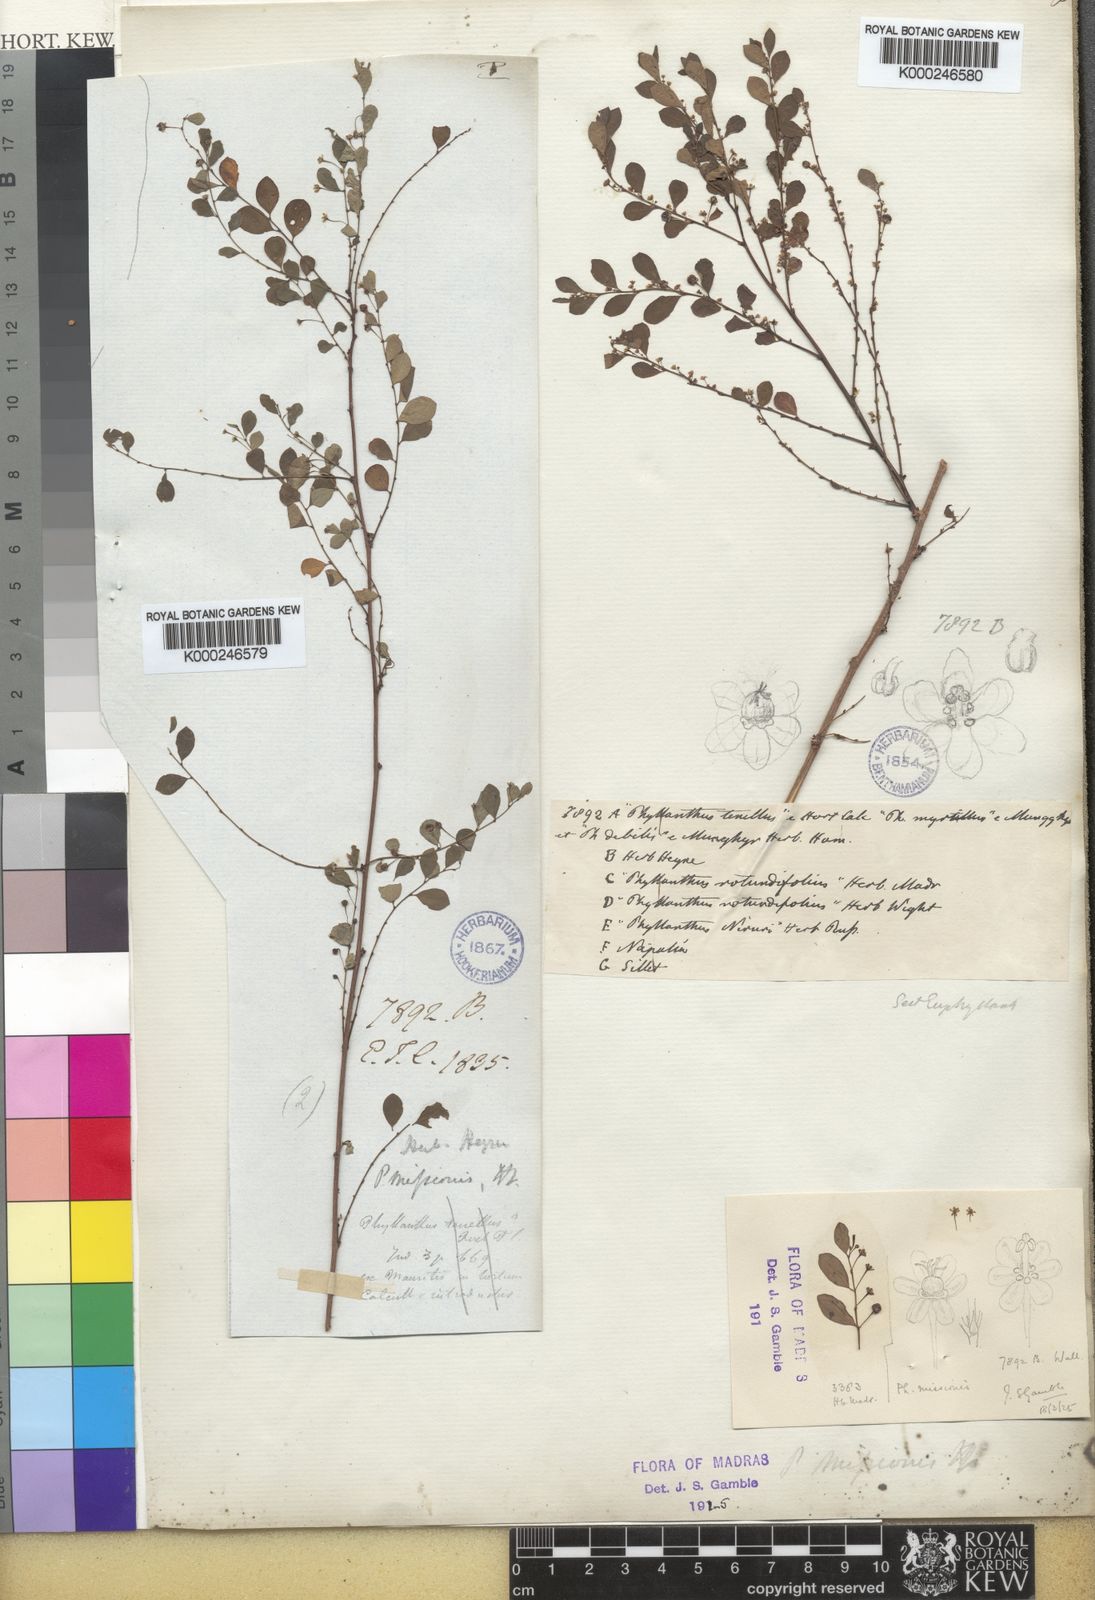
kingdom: Plantae
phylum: Tracheophyta
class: Magnoliopsida
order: Malpighiales
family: Phyllanthaceae
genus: Phyllanthus
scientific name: Phyllanthus
